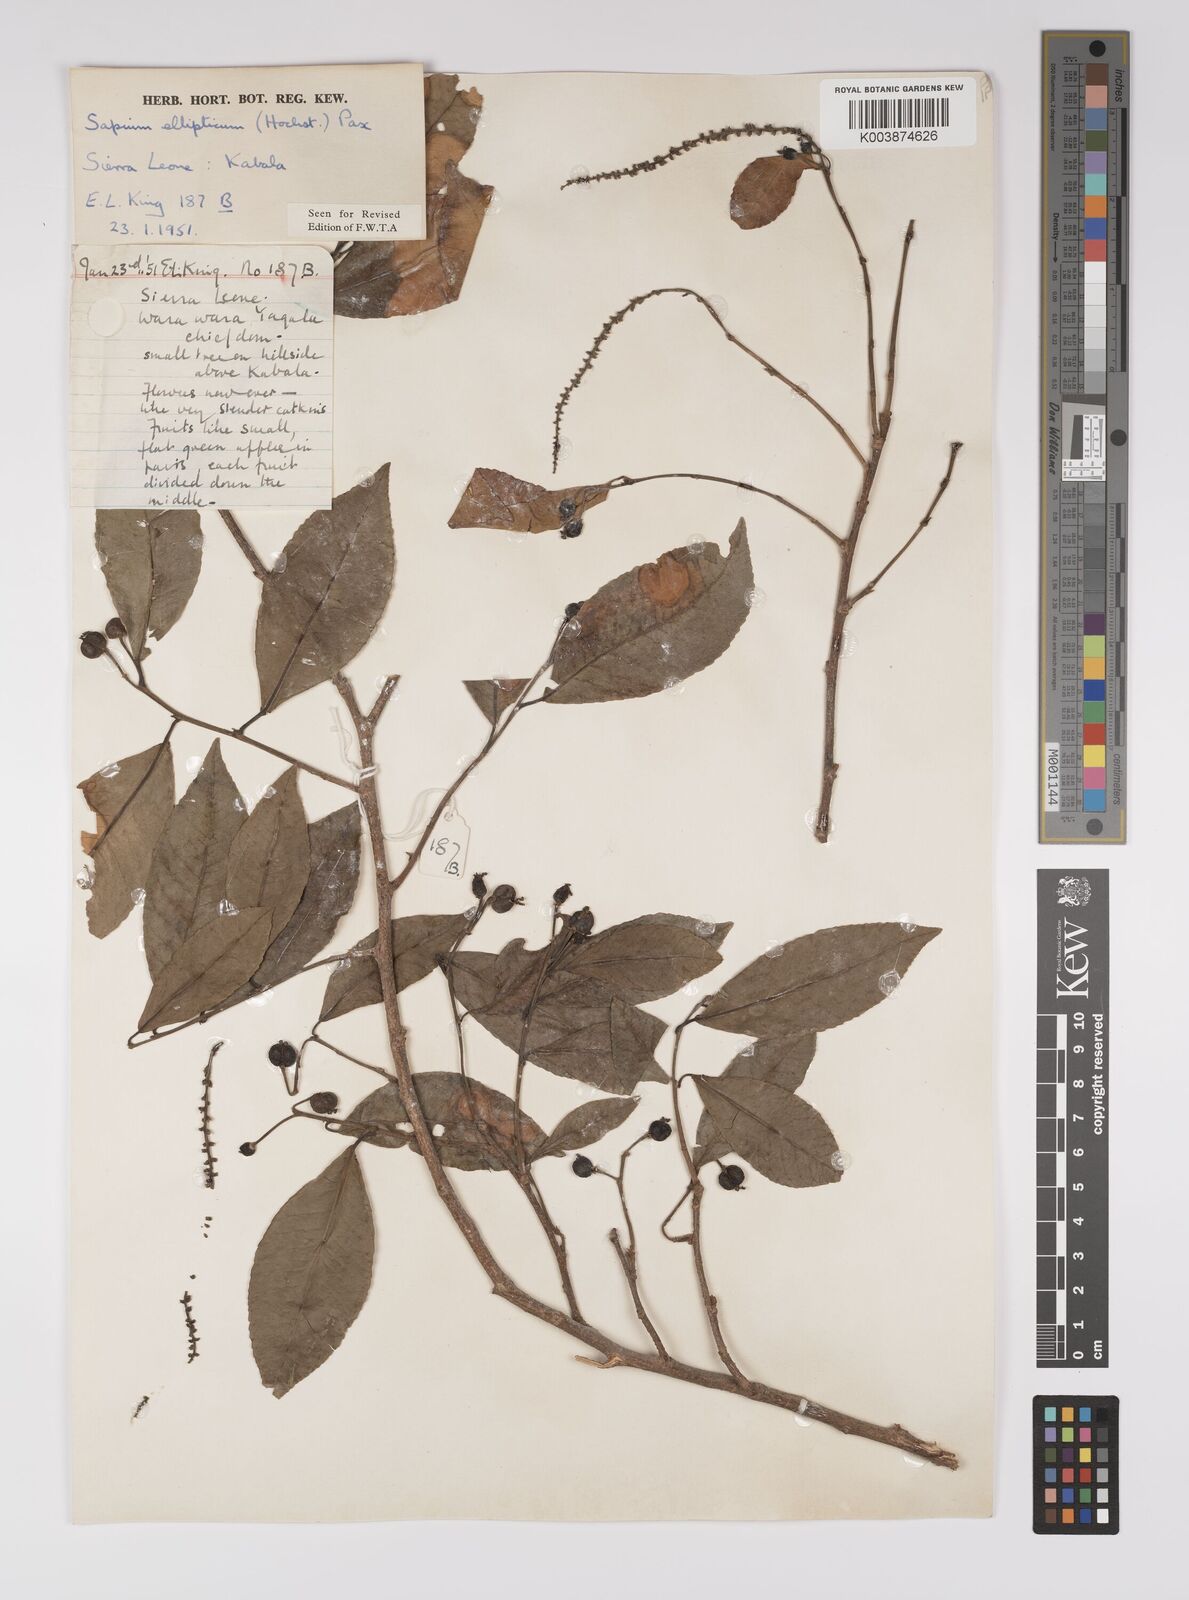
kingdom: Plantae
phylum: Tracheophyta
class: Magnoliopsida
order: Malpighiales
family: Euphorbiaceae
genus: Shirakiopsis
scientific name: Shirakiopsis elliptica
